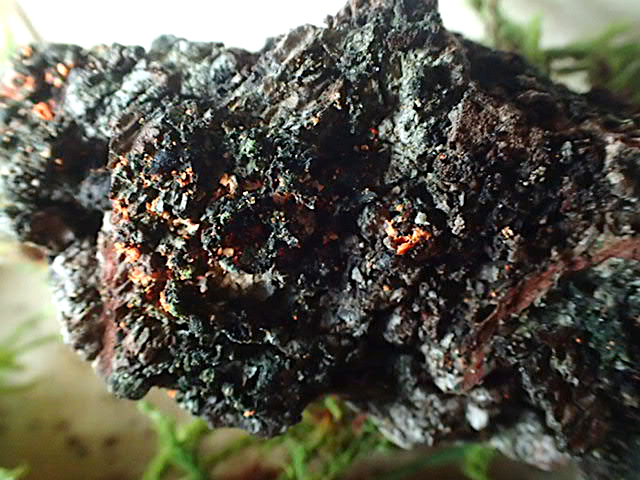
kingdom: Fungi
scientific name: Fungi
